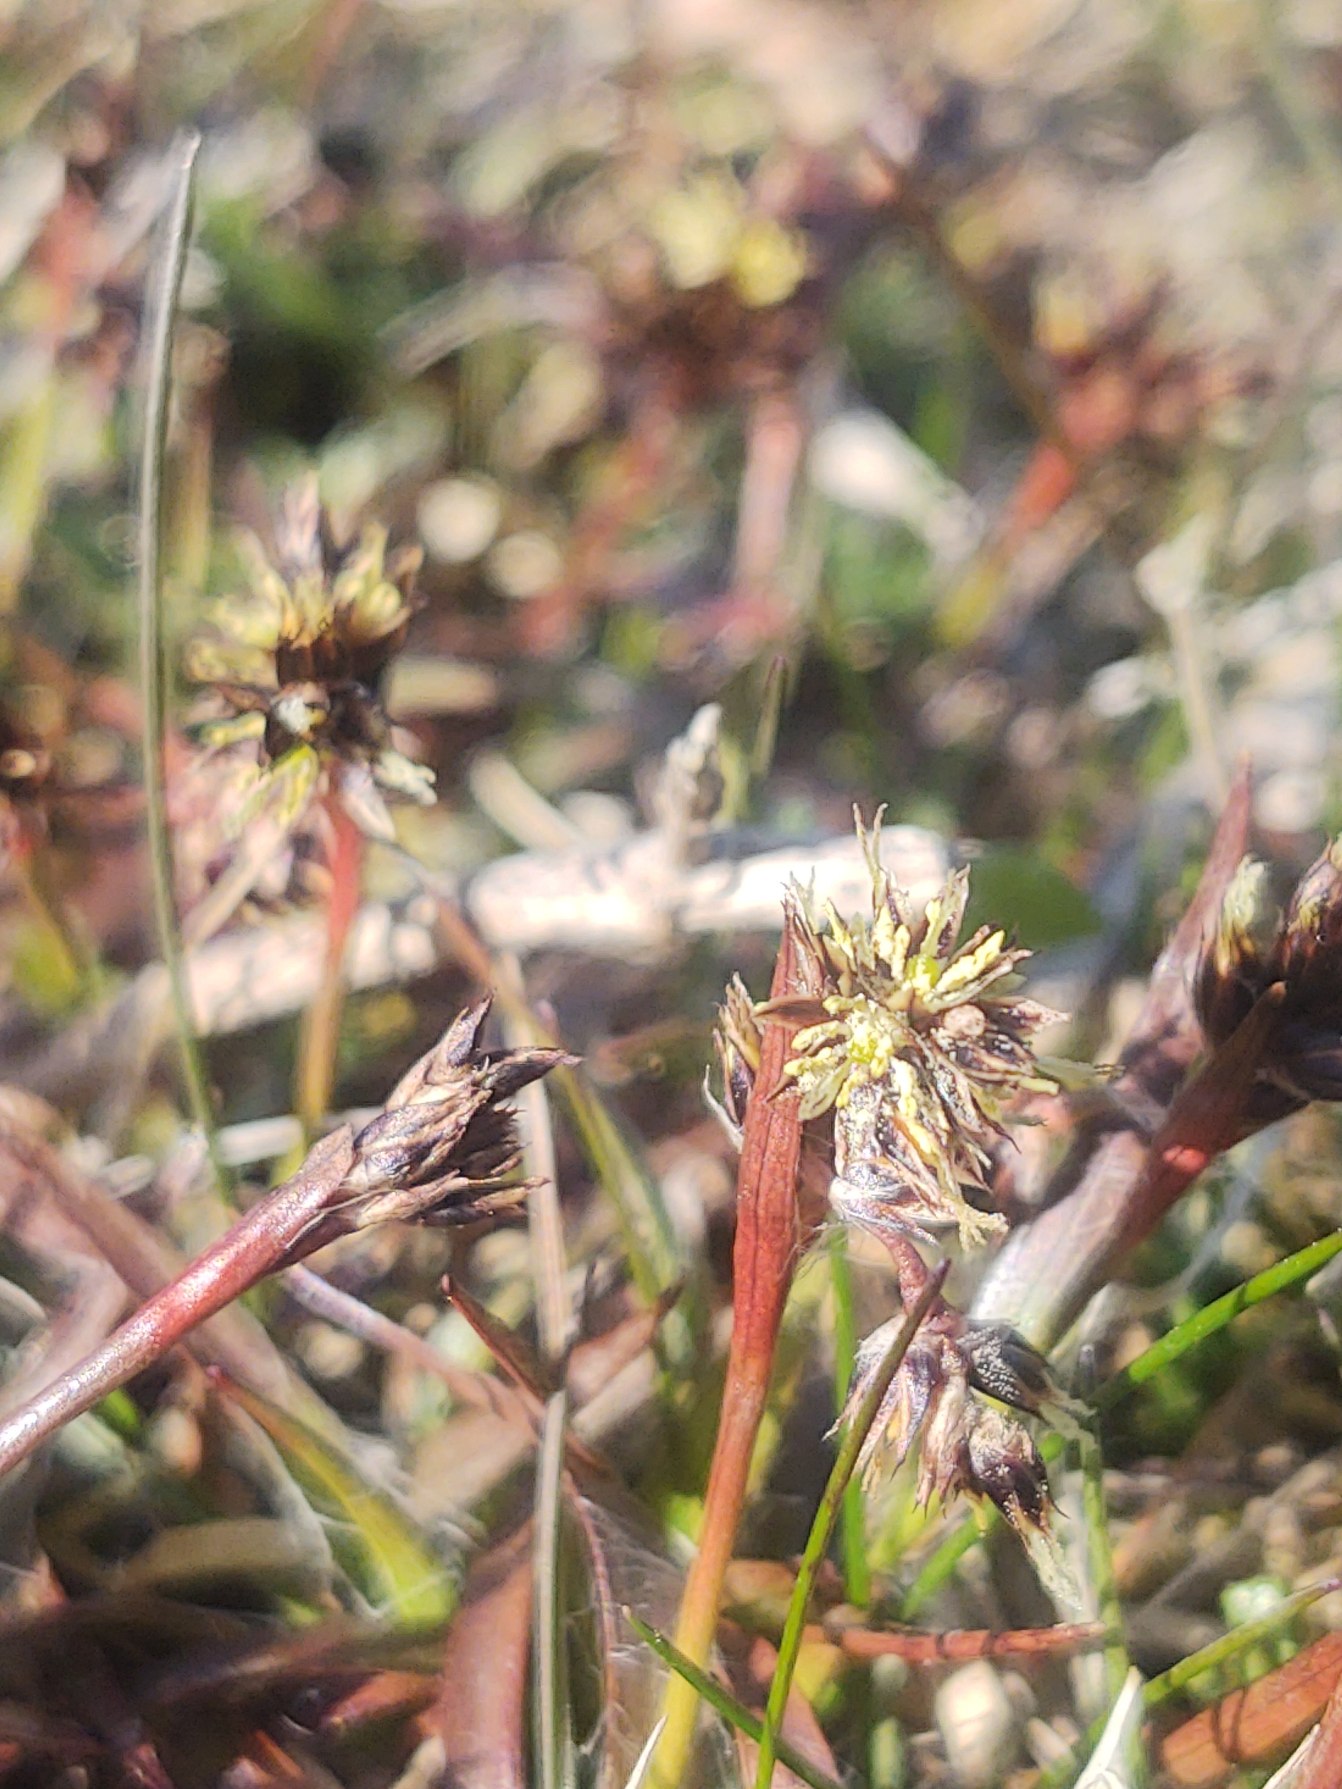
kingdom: Plantae
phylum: Tracheophyta
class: Liliopsida
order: Poales
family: Juncaceae
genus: Luzula
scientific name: Luzula campestris
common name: Mark-frytle
